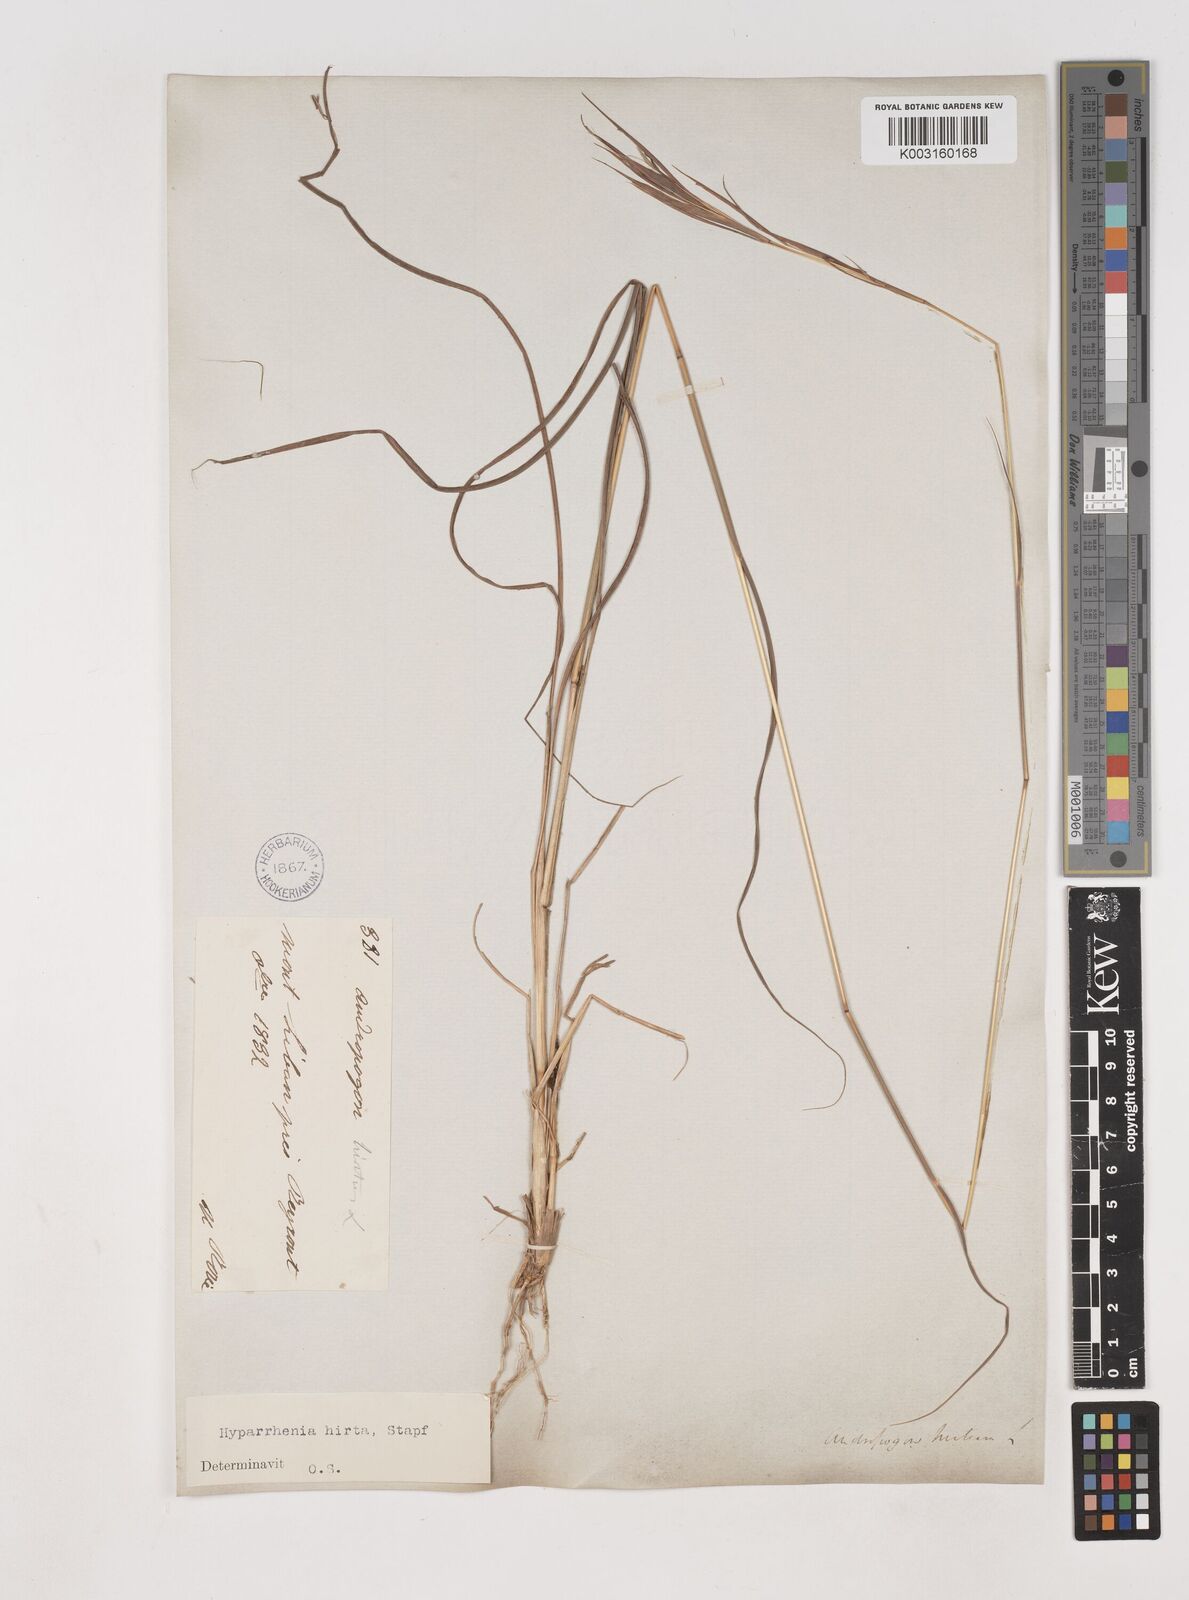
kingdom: Plantae
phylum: Tracheophyta
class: Liliopsida
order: Poales
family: Poaceae
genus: Hyparrhenia
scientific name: Hyparrhenia hirta
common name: Thatching grass
